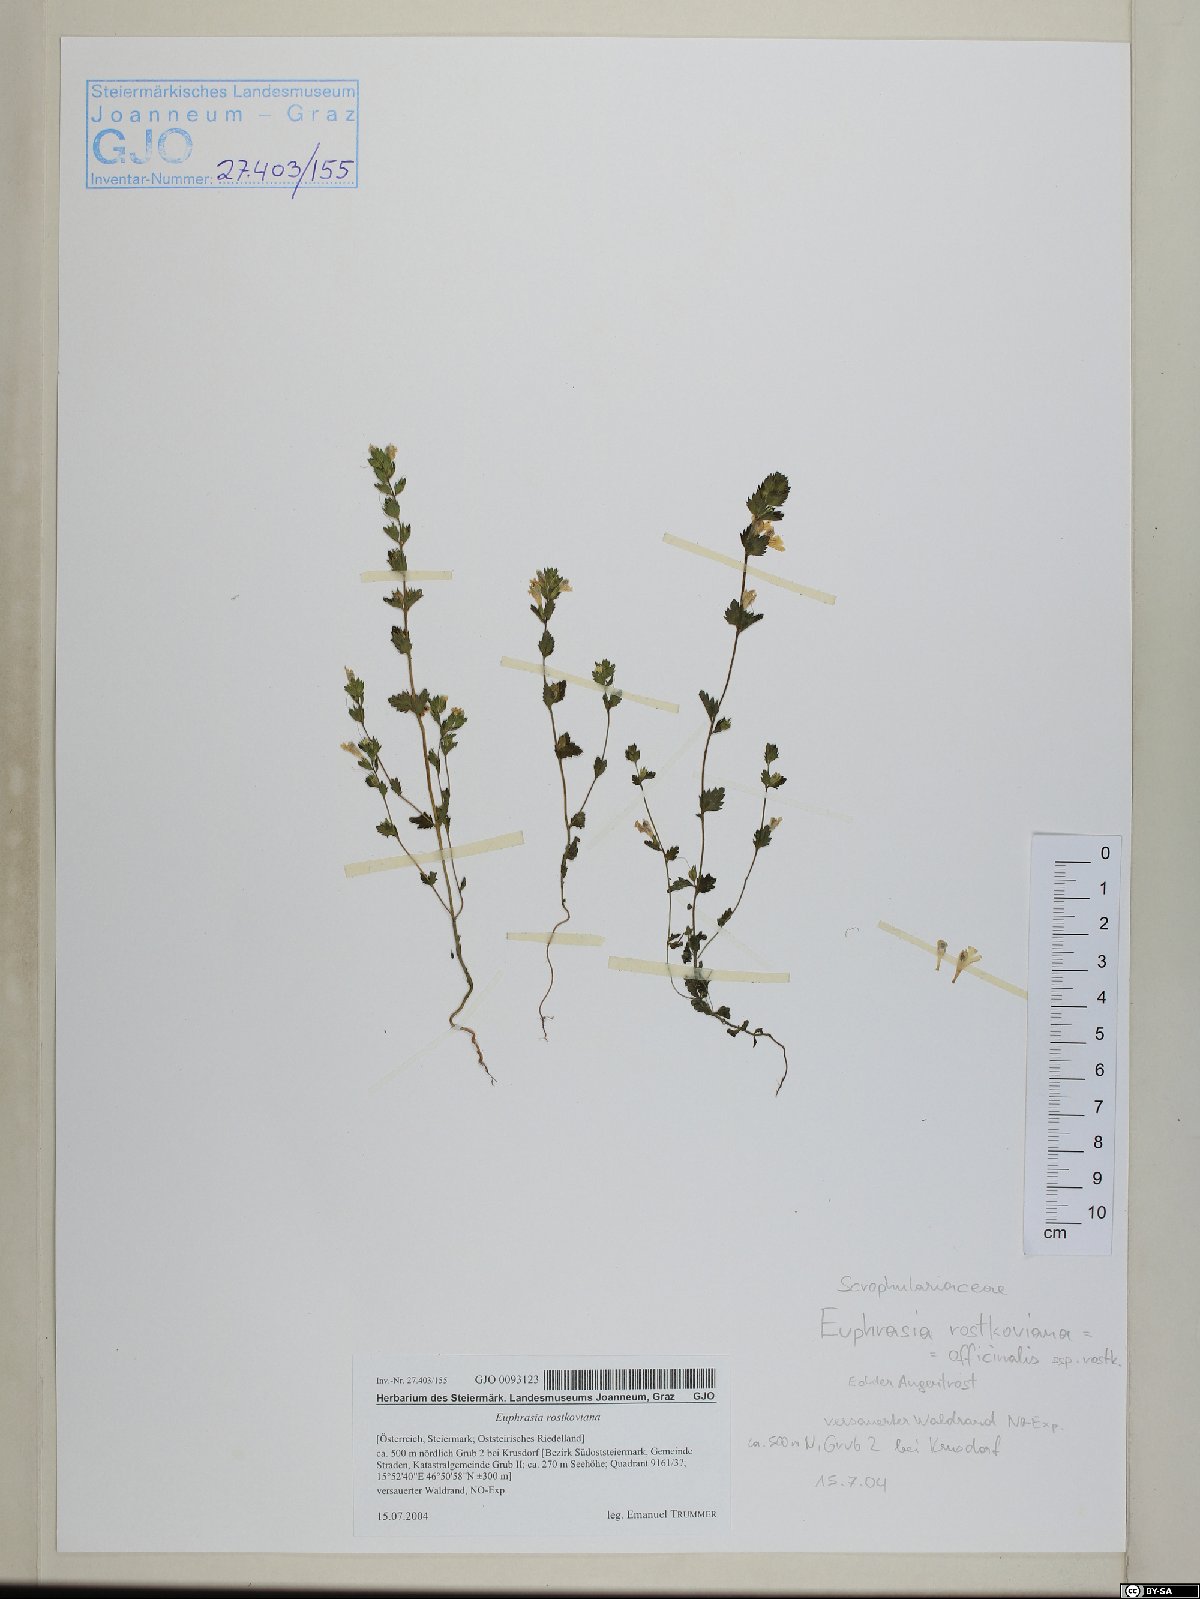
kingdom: Plantae
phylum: Tracheophyta
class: Magnoliopsida
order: Lamiales
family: Orobanchaceae
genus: Euphrasia
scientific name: Euphrasia officinalis
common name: Eyebright
